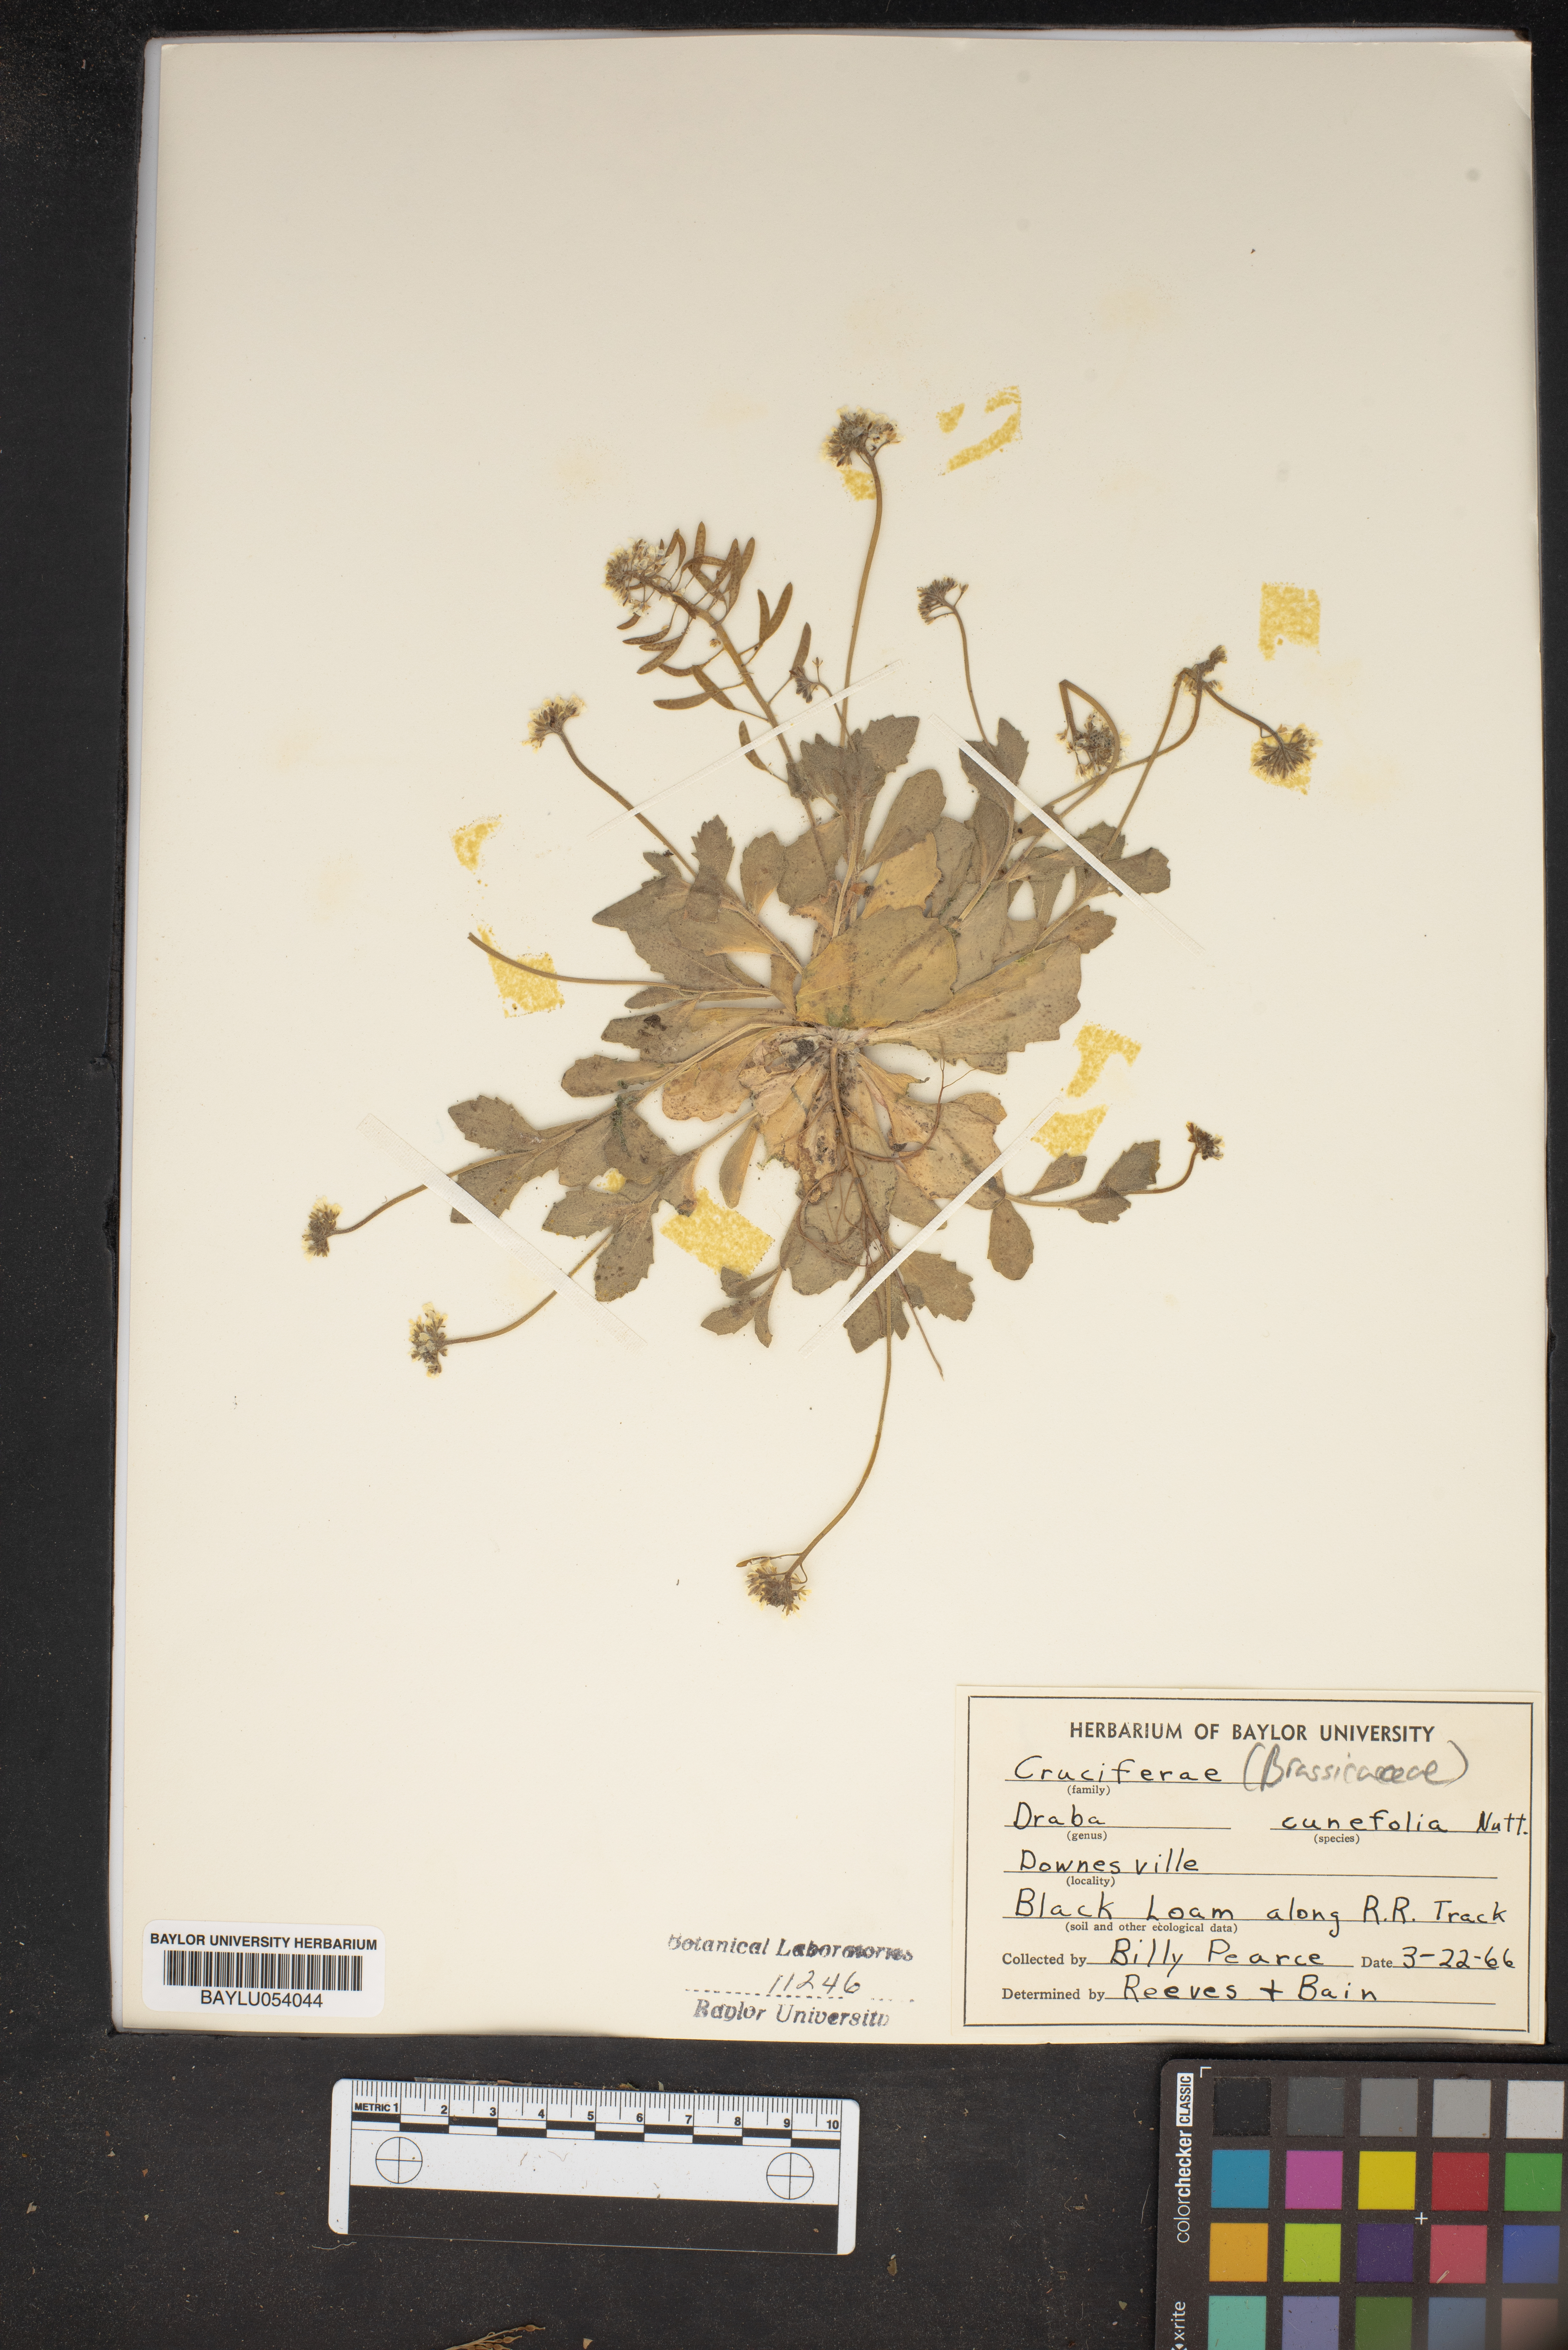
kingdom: Plantae
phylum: Tracheophyta
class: Magnoliopsida
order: Brassicales
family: Brassicaceae
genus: Tomostima
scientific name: Tomostima cuneifolia
